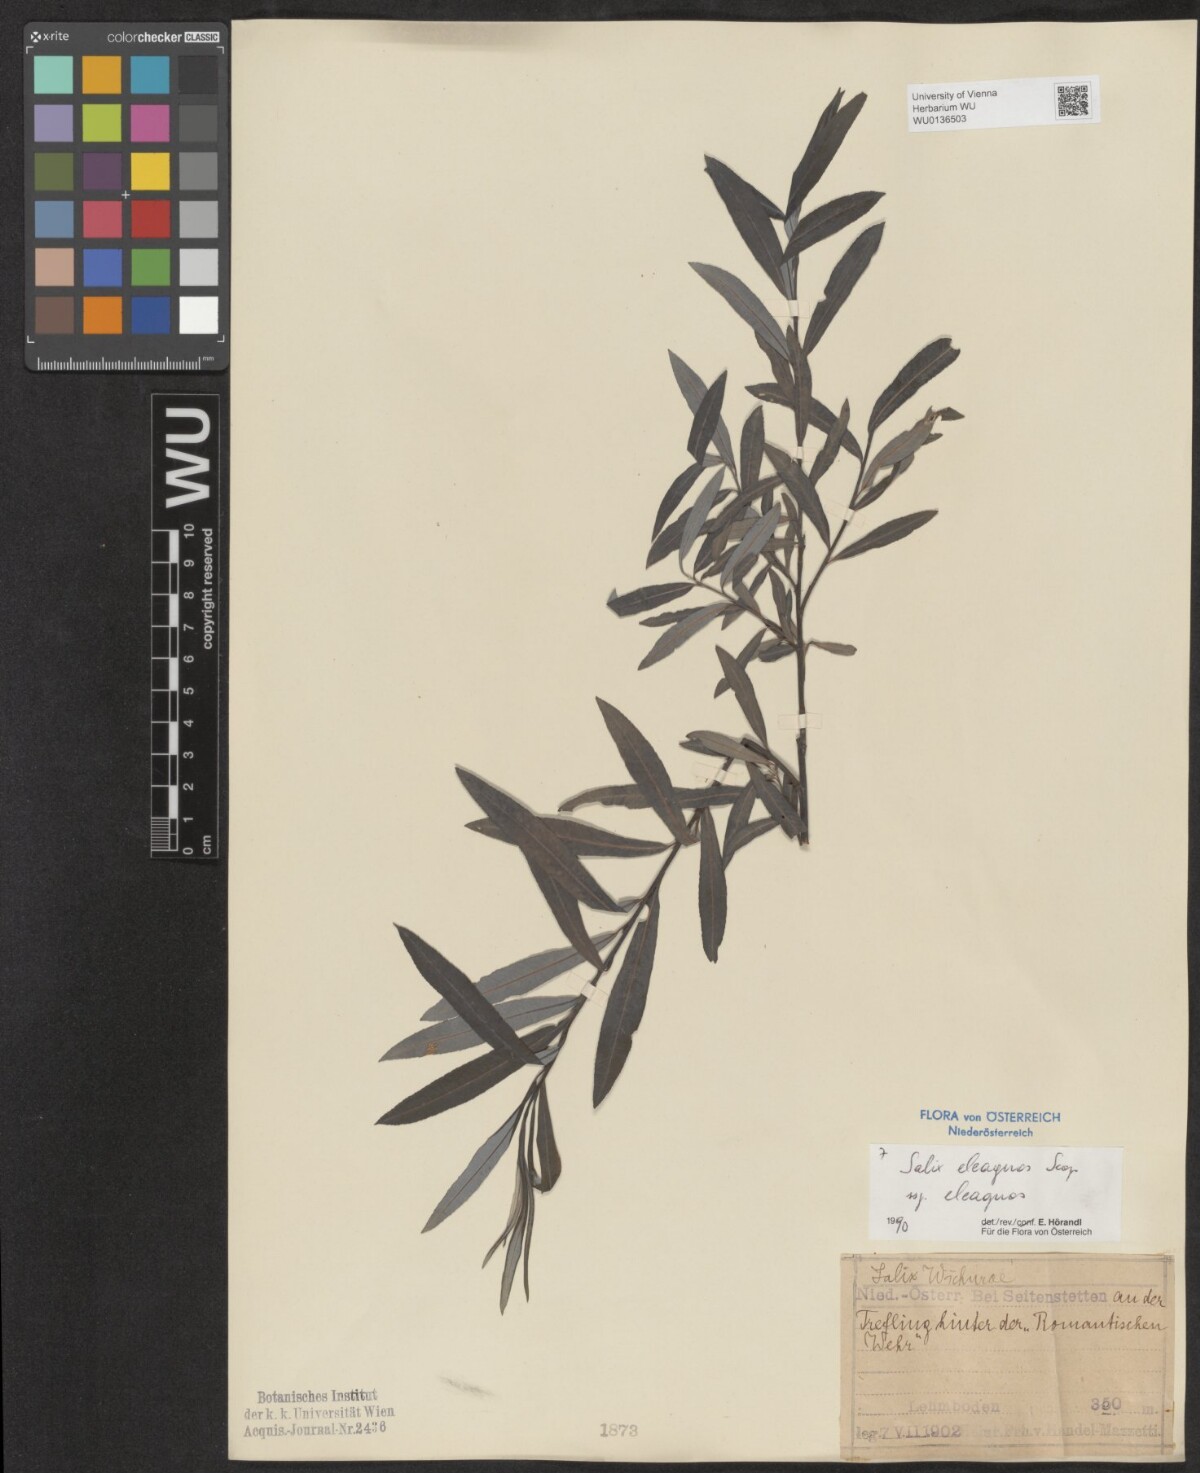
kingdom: Plantae
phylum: Tracheophyta
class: Magnoliopsida
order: Malpighiales
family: Salicaceae
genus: Salix
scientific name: Salix eleagnos
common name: Elaeagnus willow
